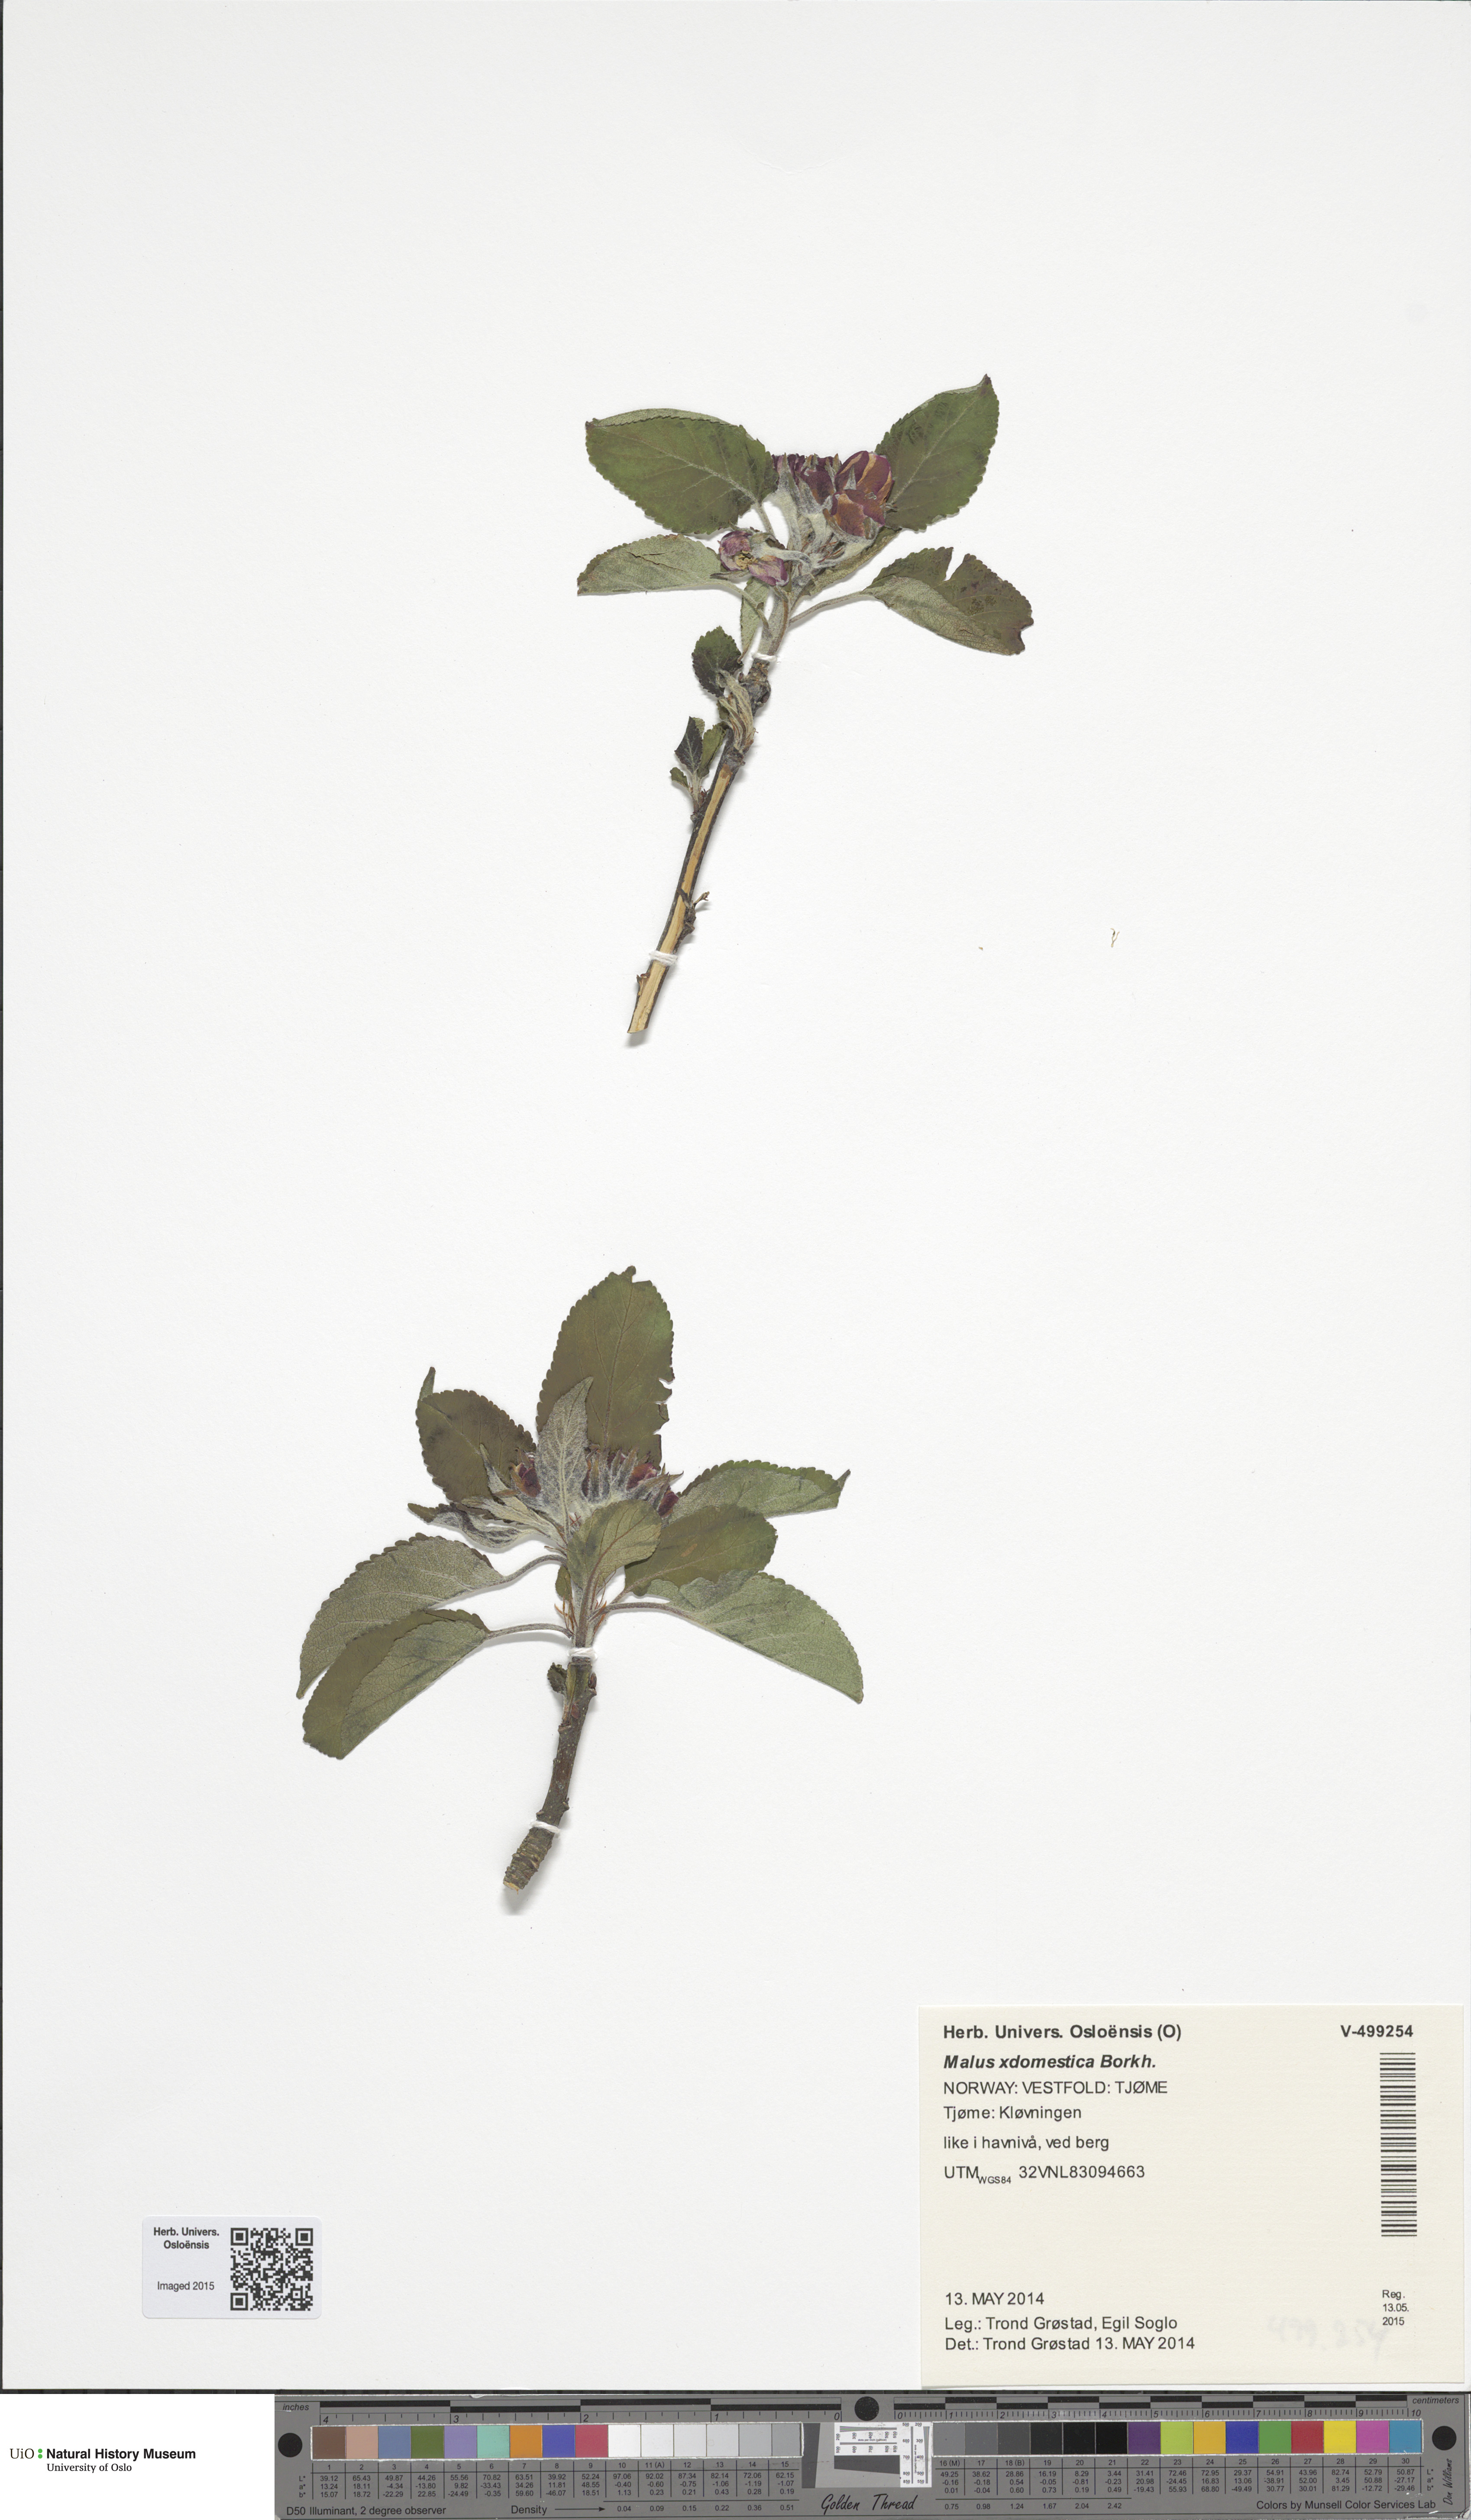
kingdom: Plantae
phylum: Tracheophyta
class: Magnoliopsida
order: Rosales
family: Rosaceae
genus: Malus
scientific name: Malus domestica
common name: Apple
